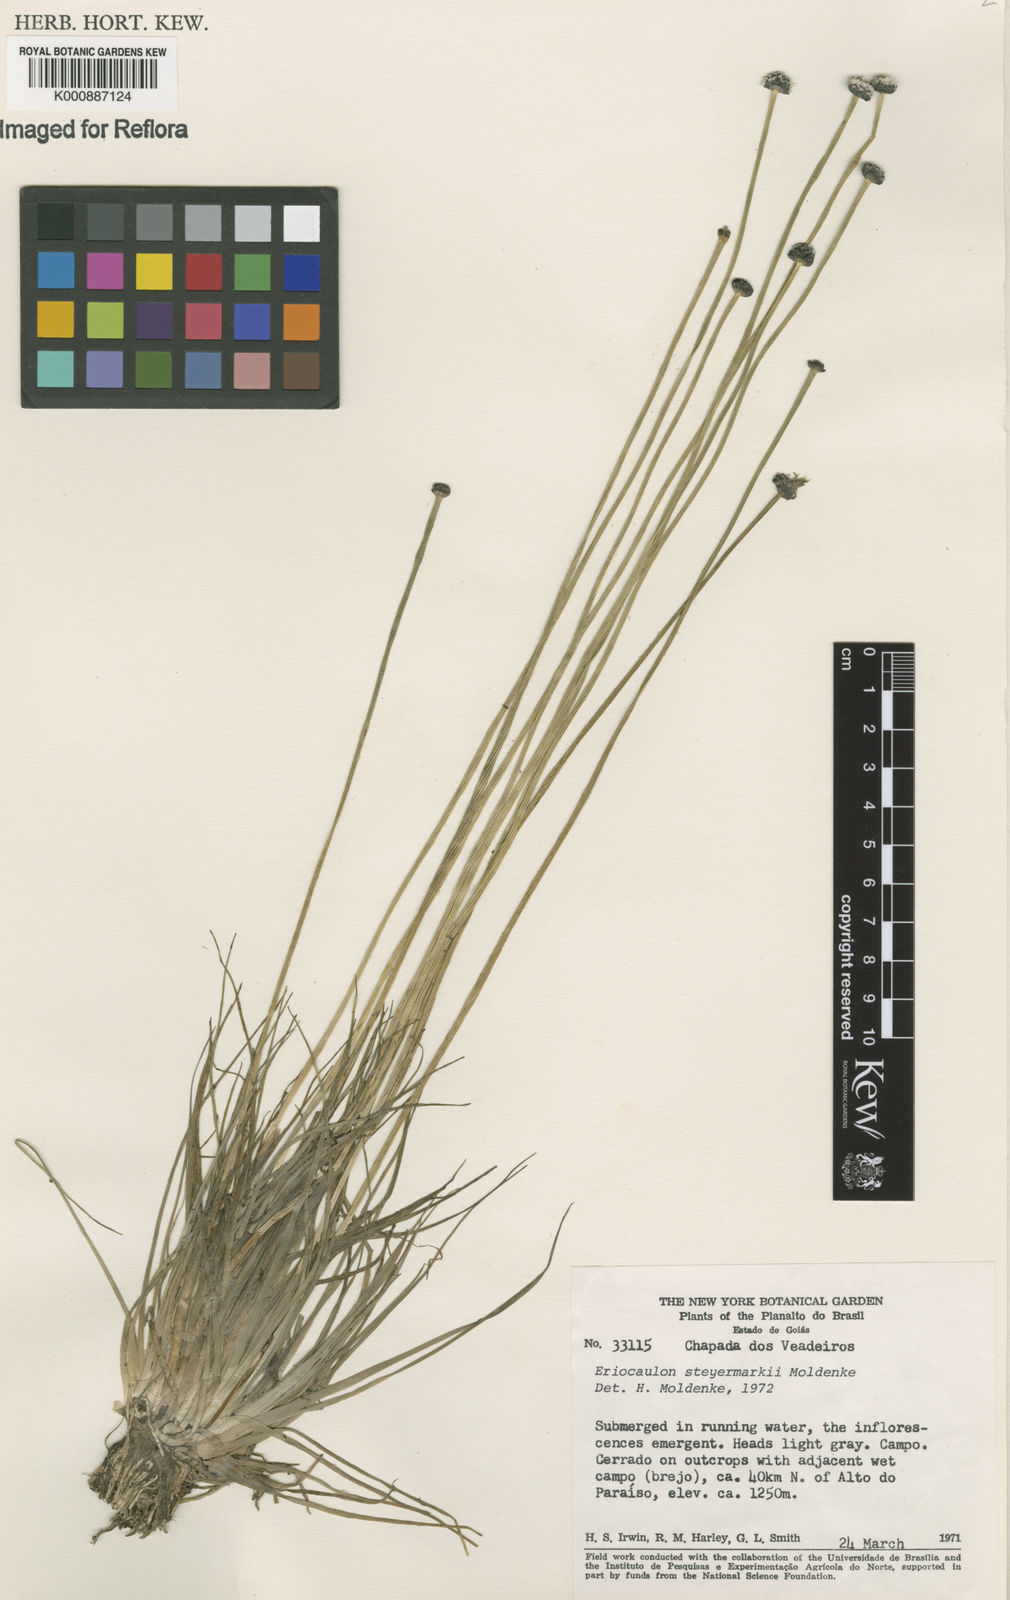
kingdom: Plantae
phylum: Tracheophyta
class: Liliopsida
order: Poales
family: Eriocaulaceae
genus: Eriocaulon
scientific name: Eriocaulon steyermarkii
